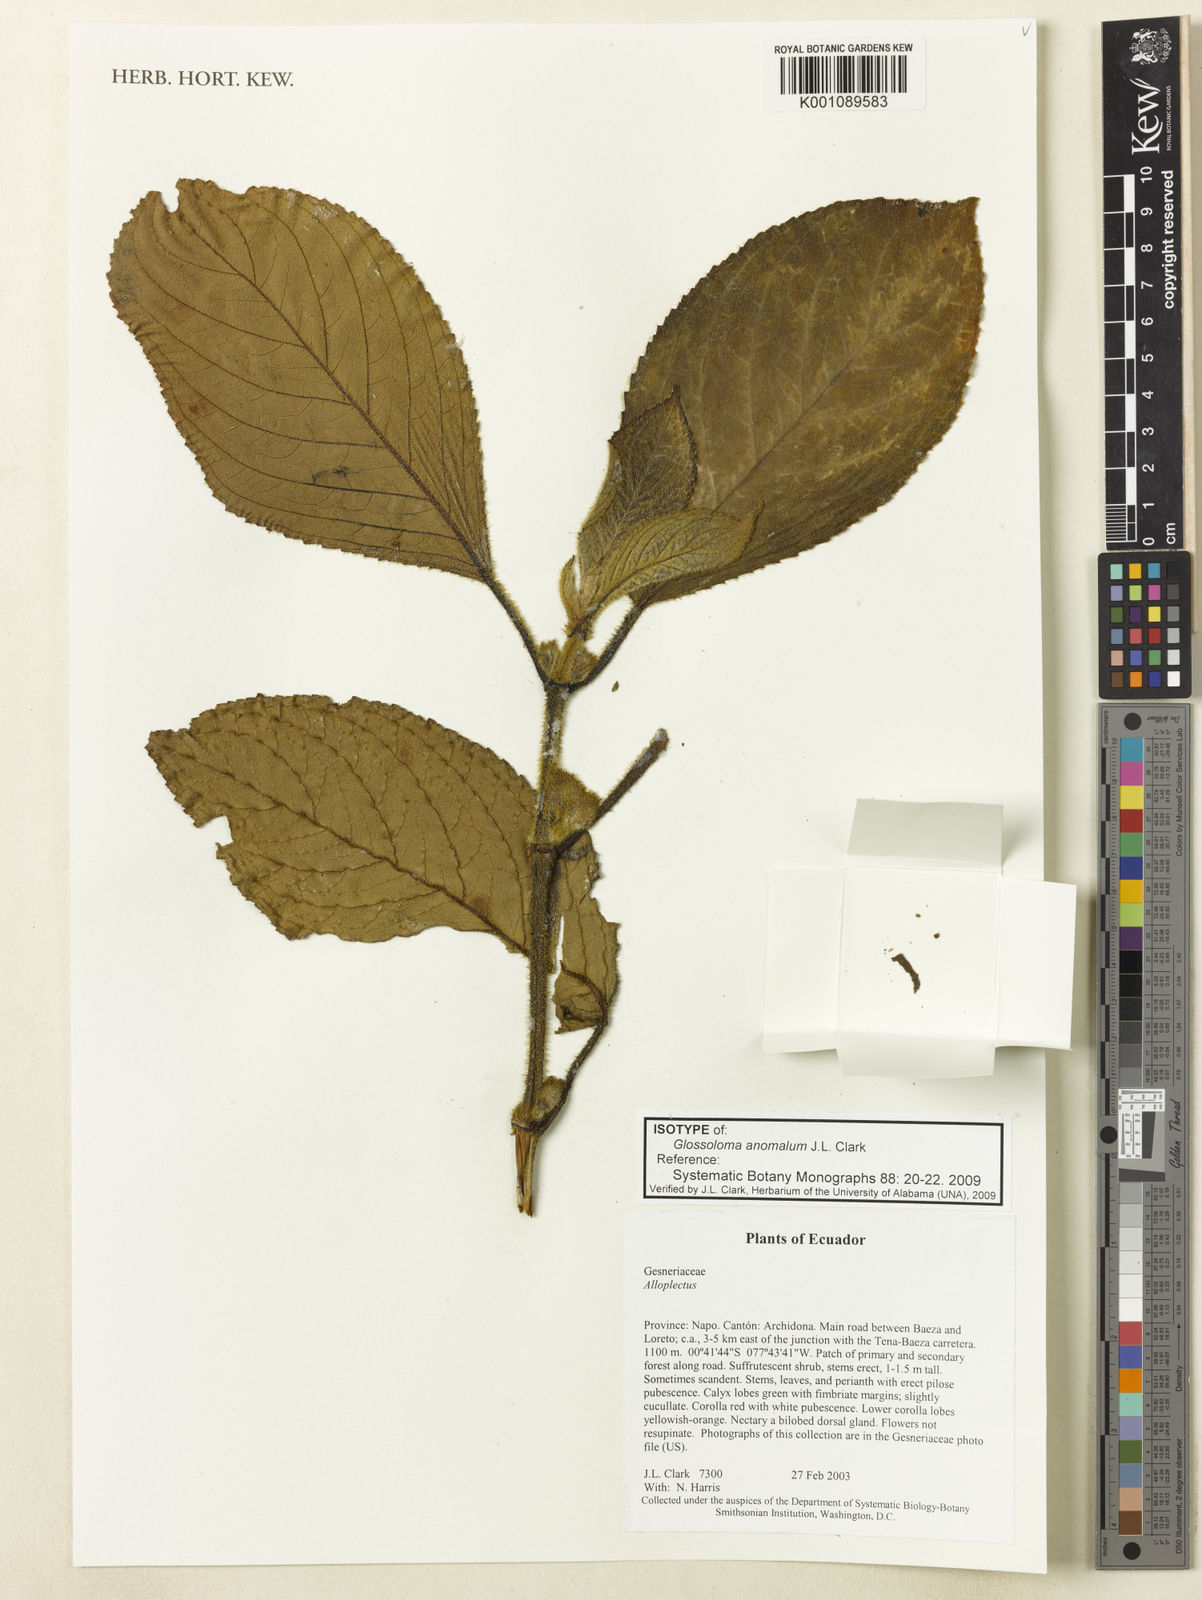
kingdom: Plantae
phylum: Tracheophyta
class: Magnoliopsida
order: Lamiales
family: Gesneriaceae
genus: Glossoloma
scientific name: Glossoloma anomalum
